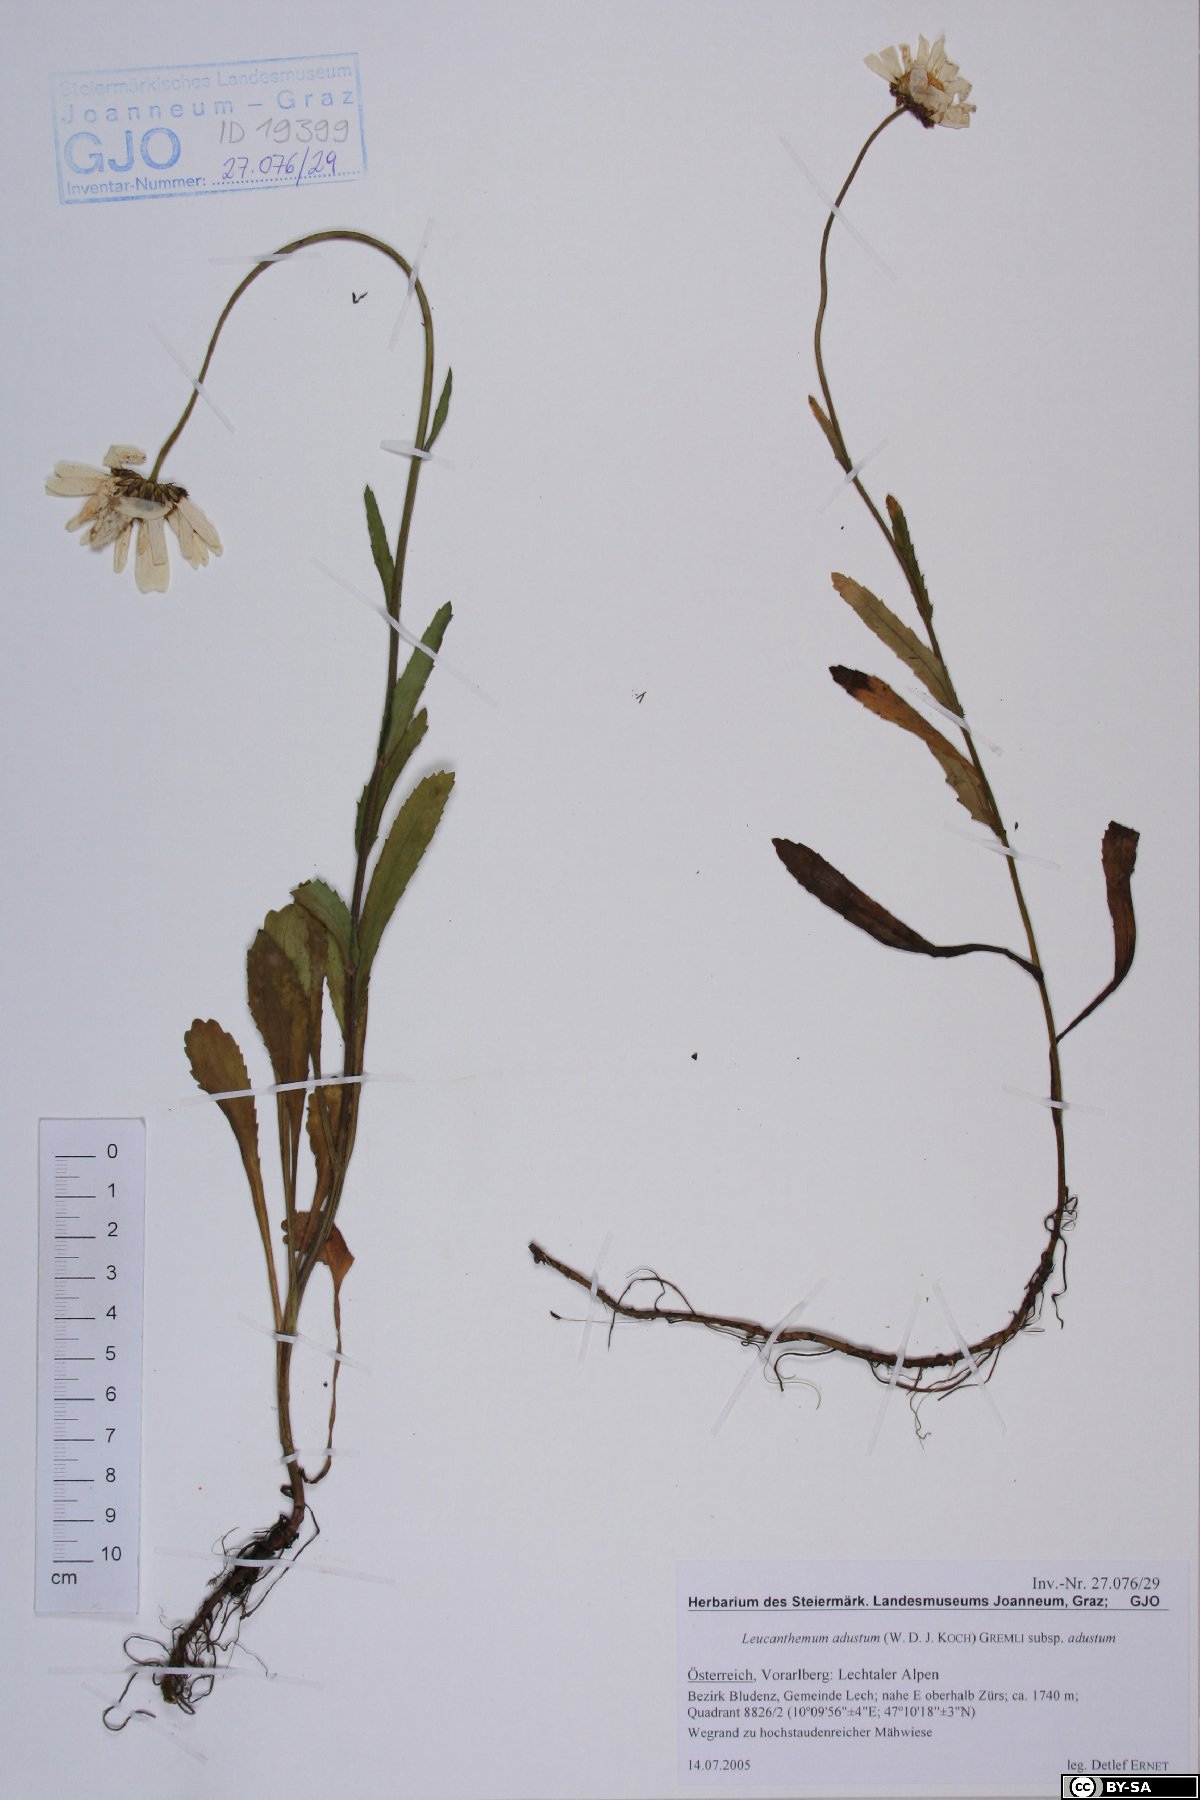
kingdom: Plantae
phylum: Tracheophyta
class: Magnoliopsida
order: Asterales
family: Asteraceae
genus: Leucanthemum
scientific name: Leucanthemum adustum
